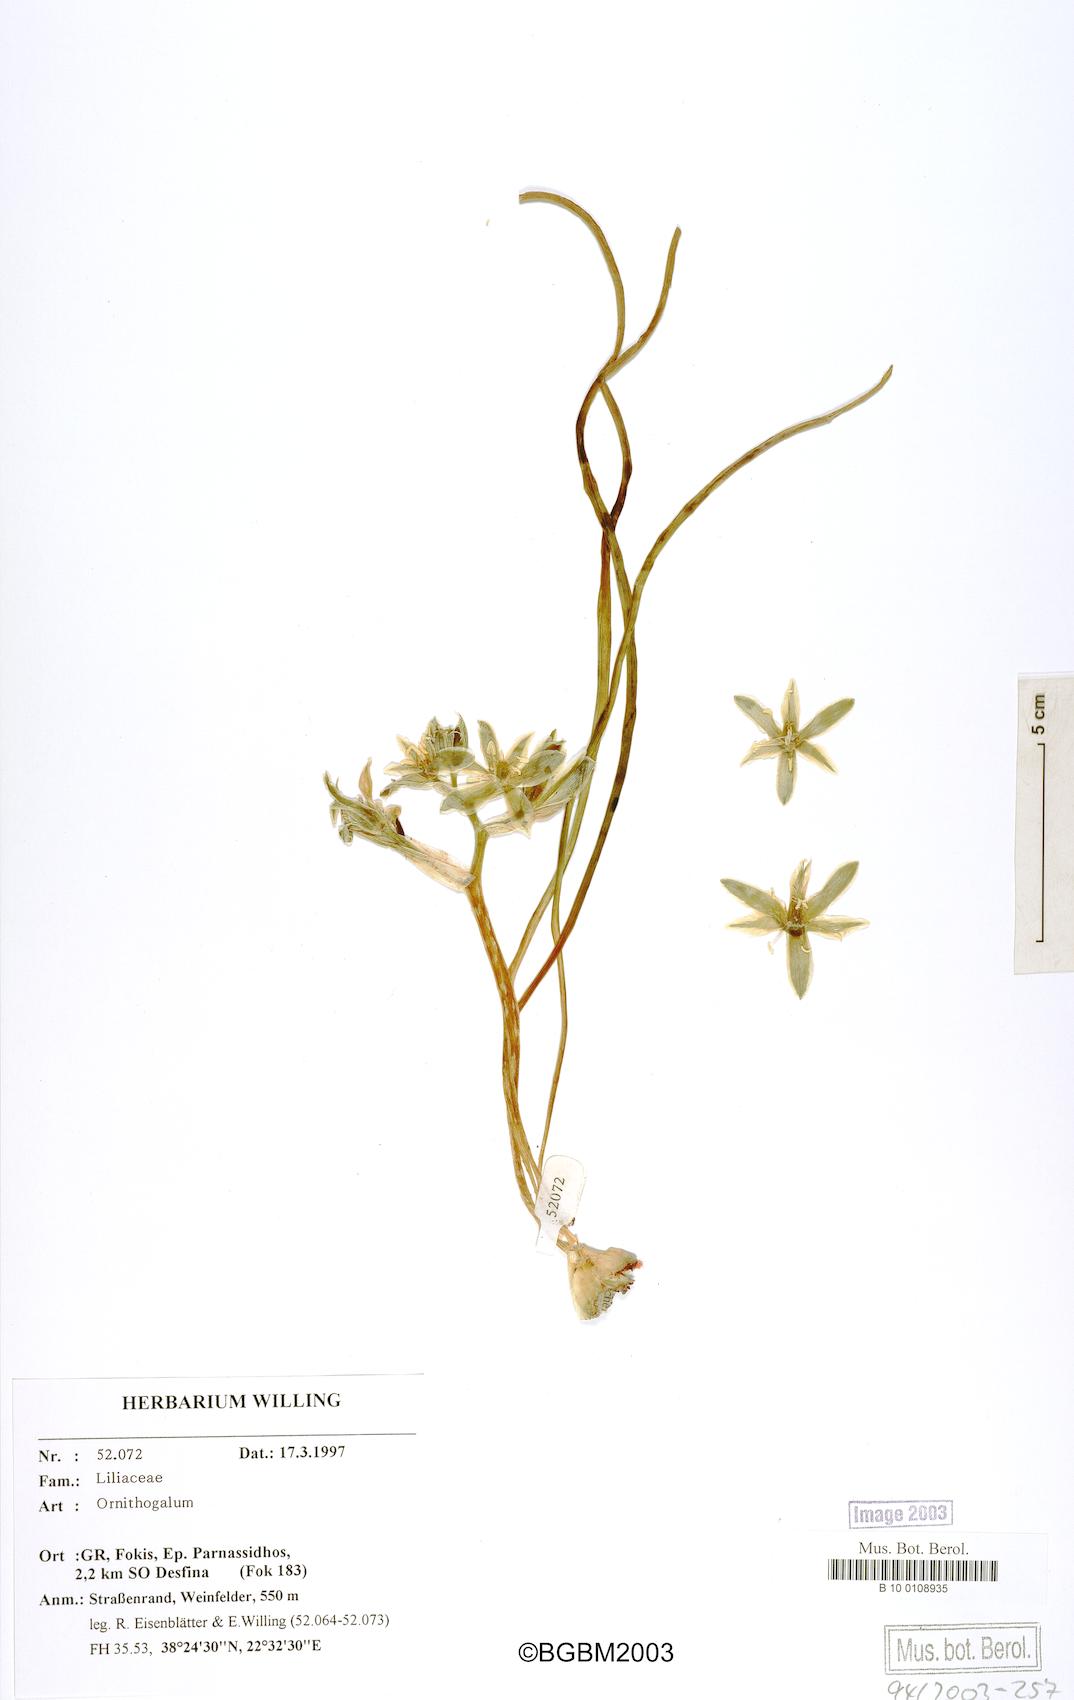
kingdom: Plantae
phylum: Tracheophyta
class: Liliopsida
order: Asparagales
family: Asparagaceae
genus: Ornithogalum
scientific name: Ornithogalum
